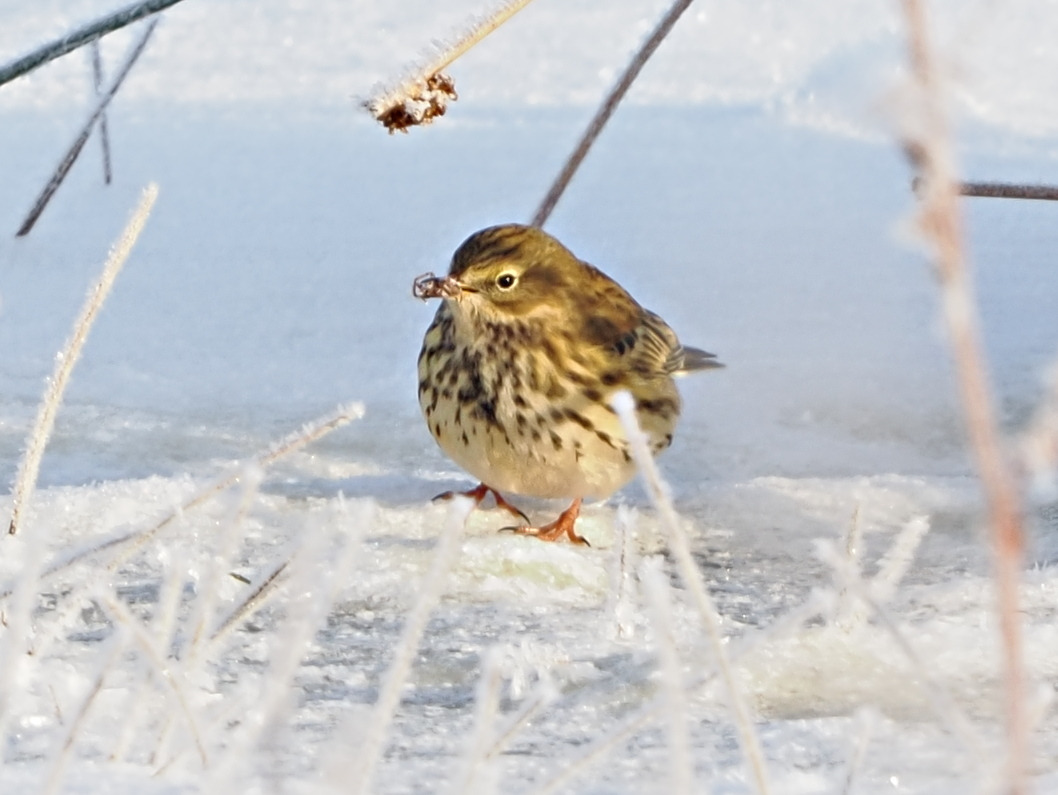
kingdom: Animalia
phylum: Chordata
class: Aves
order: Passeriformes
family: Motacillidae
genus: Anthus
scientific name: Anthus pratensis
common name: Engpiber
